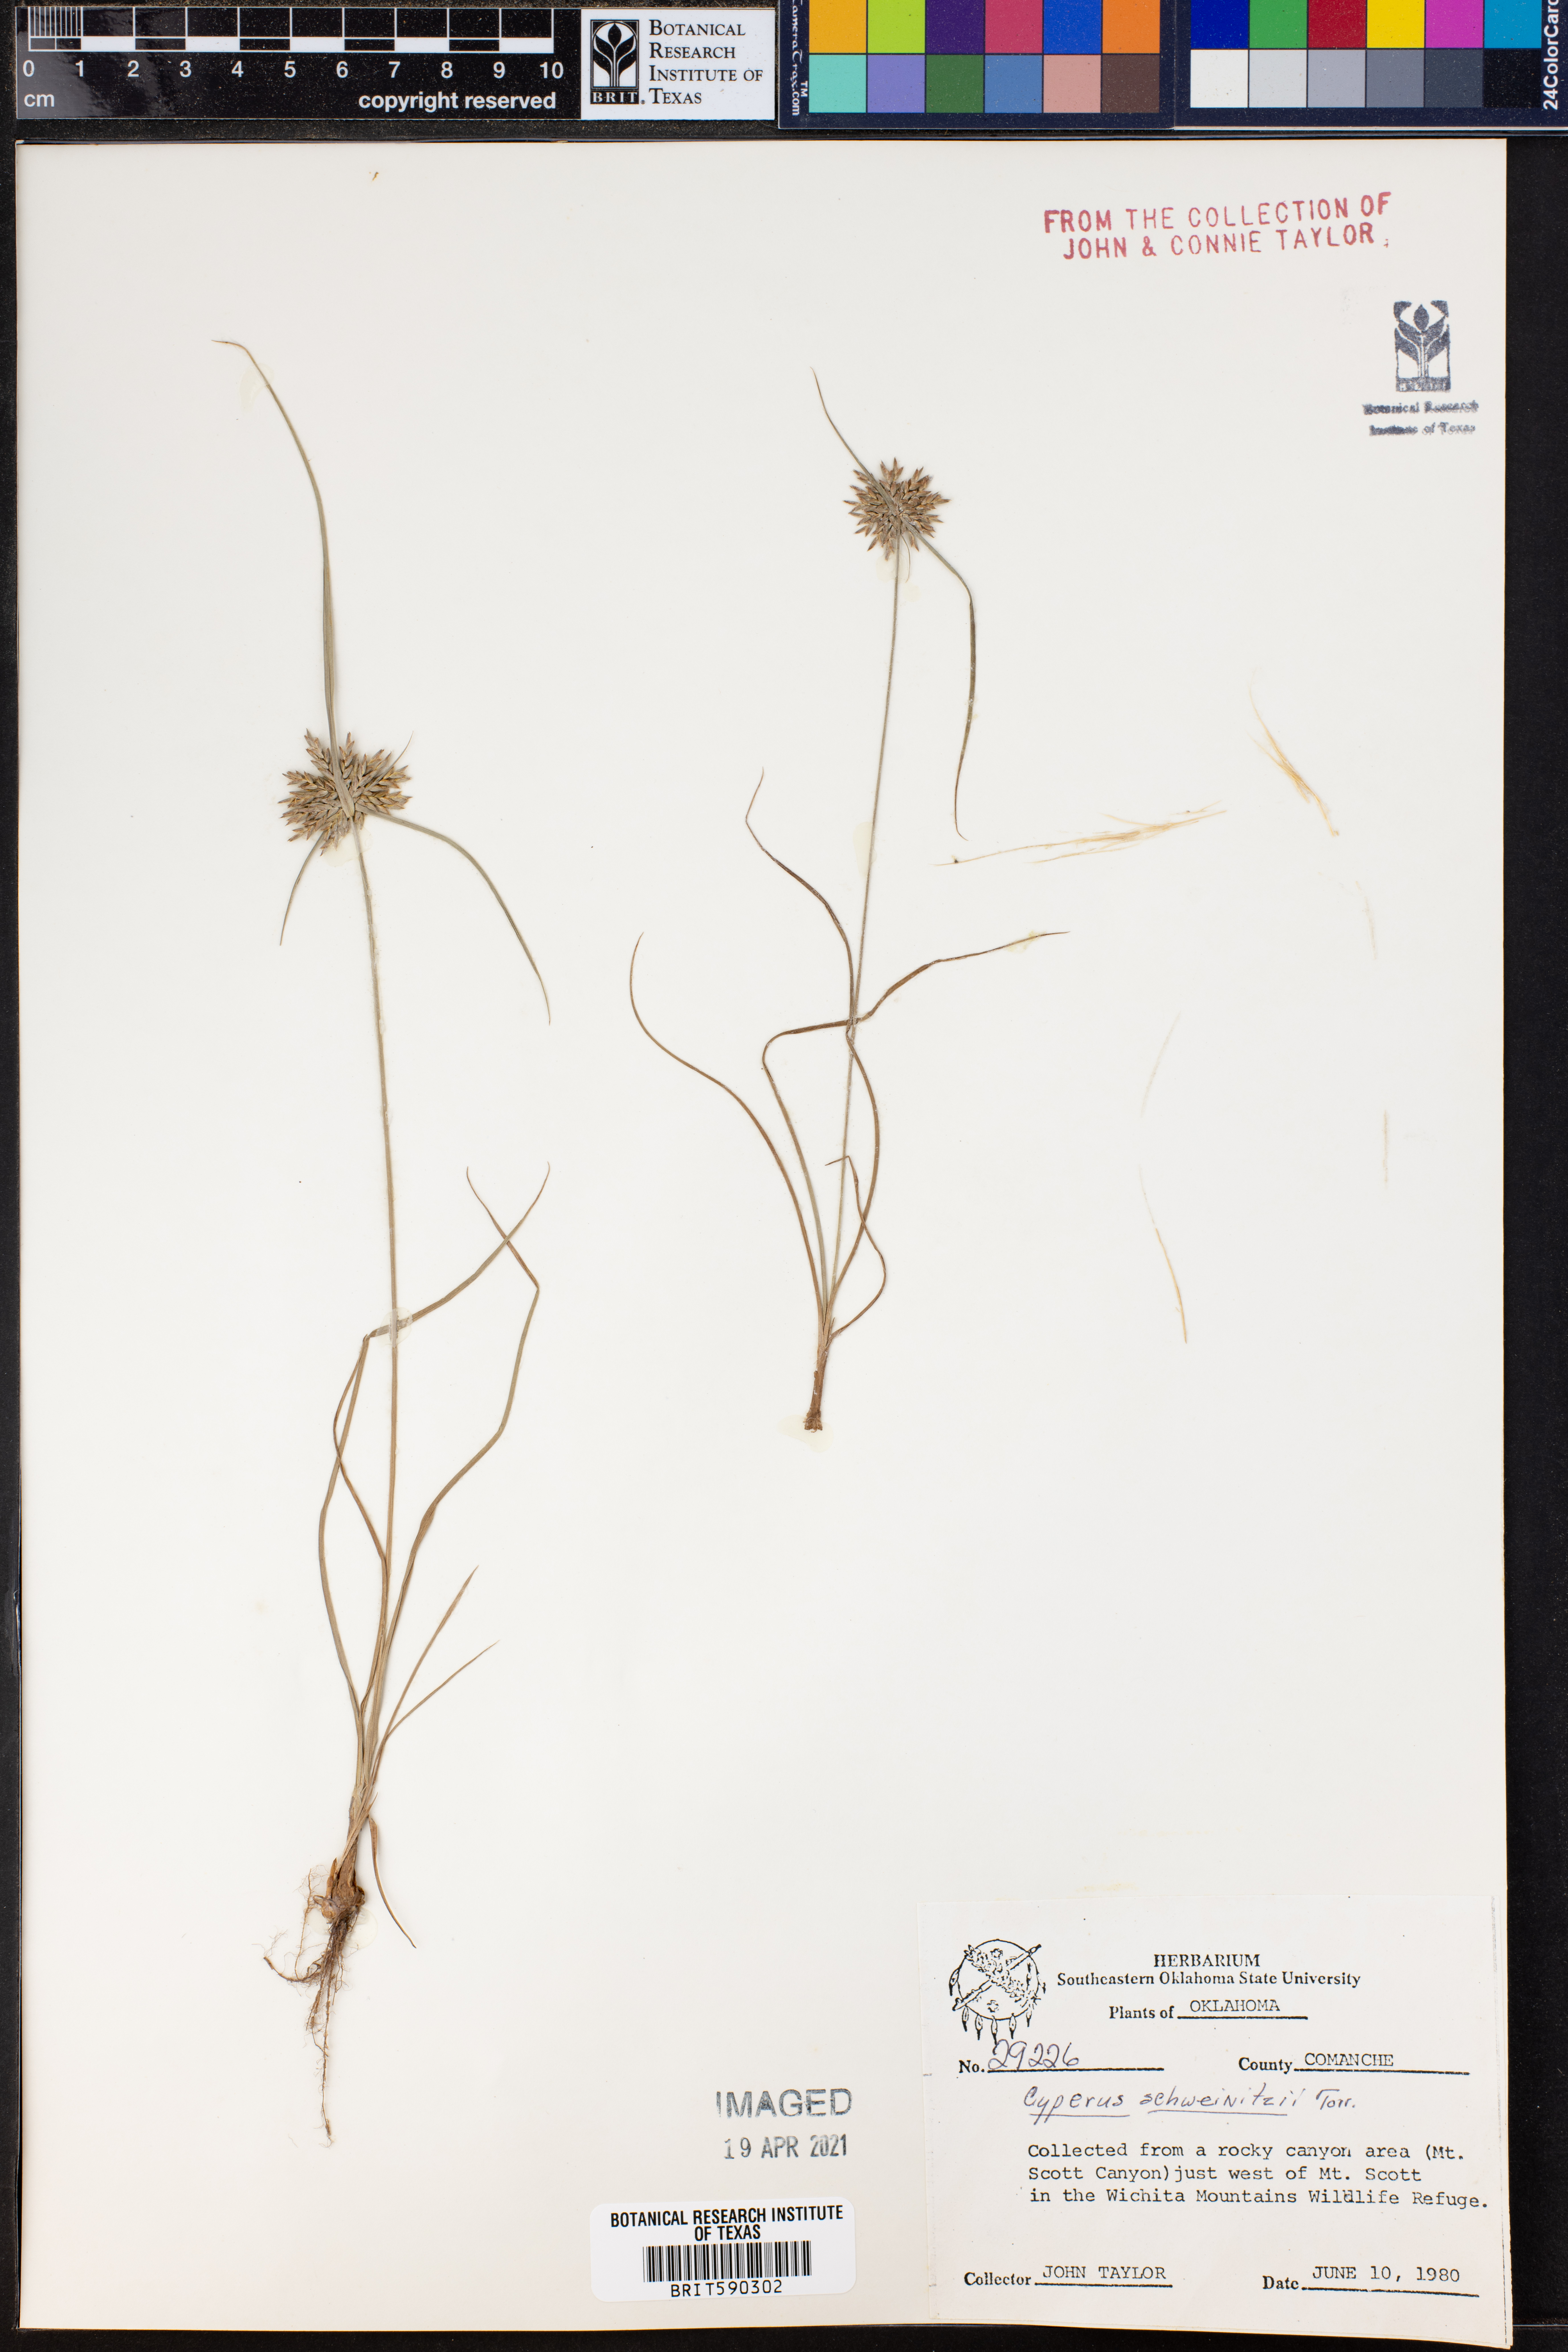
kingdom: Plantae
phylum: Tracheophyta
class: Liliopsida
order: Poales
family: Cyperaceae
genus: Cyperus
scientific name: Cyperus schweinitzii
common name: Schweinitz's cyperus
